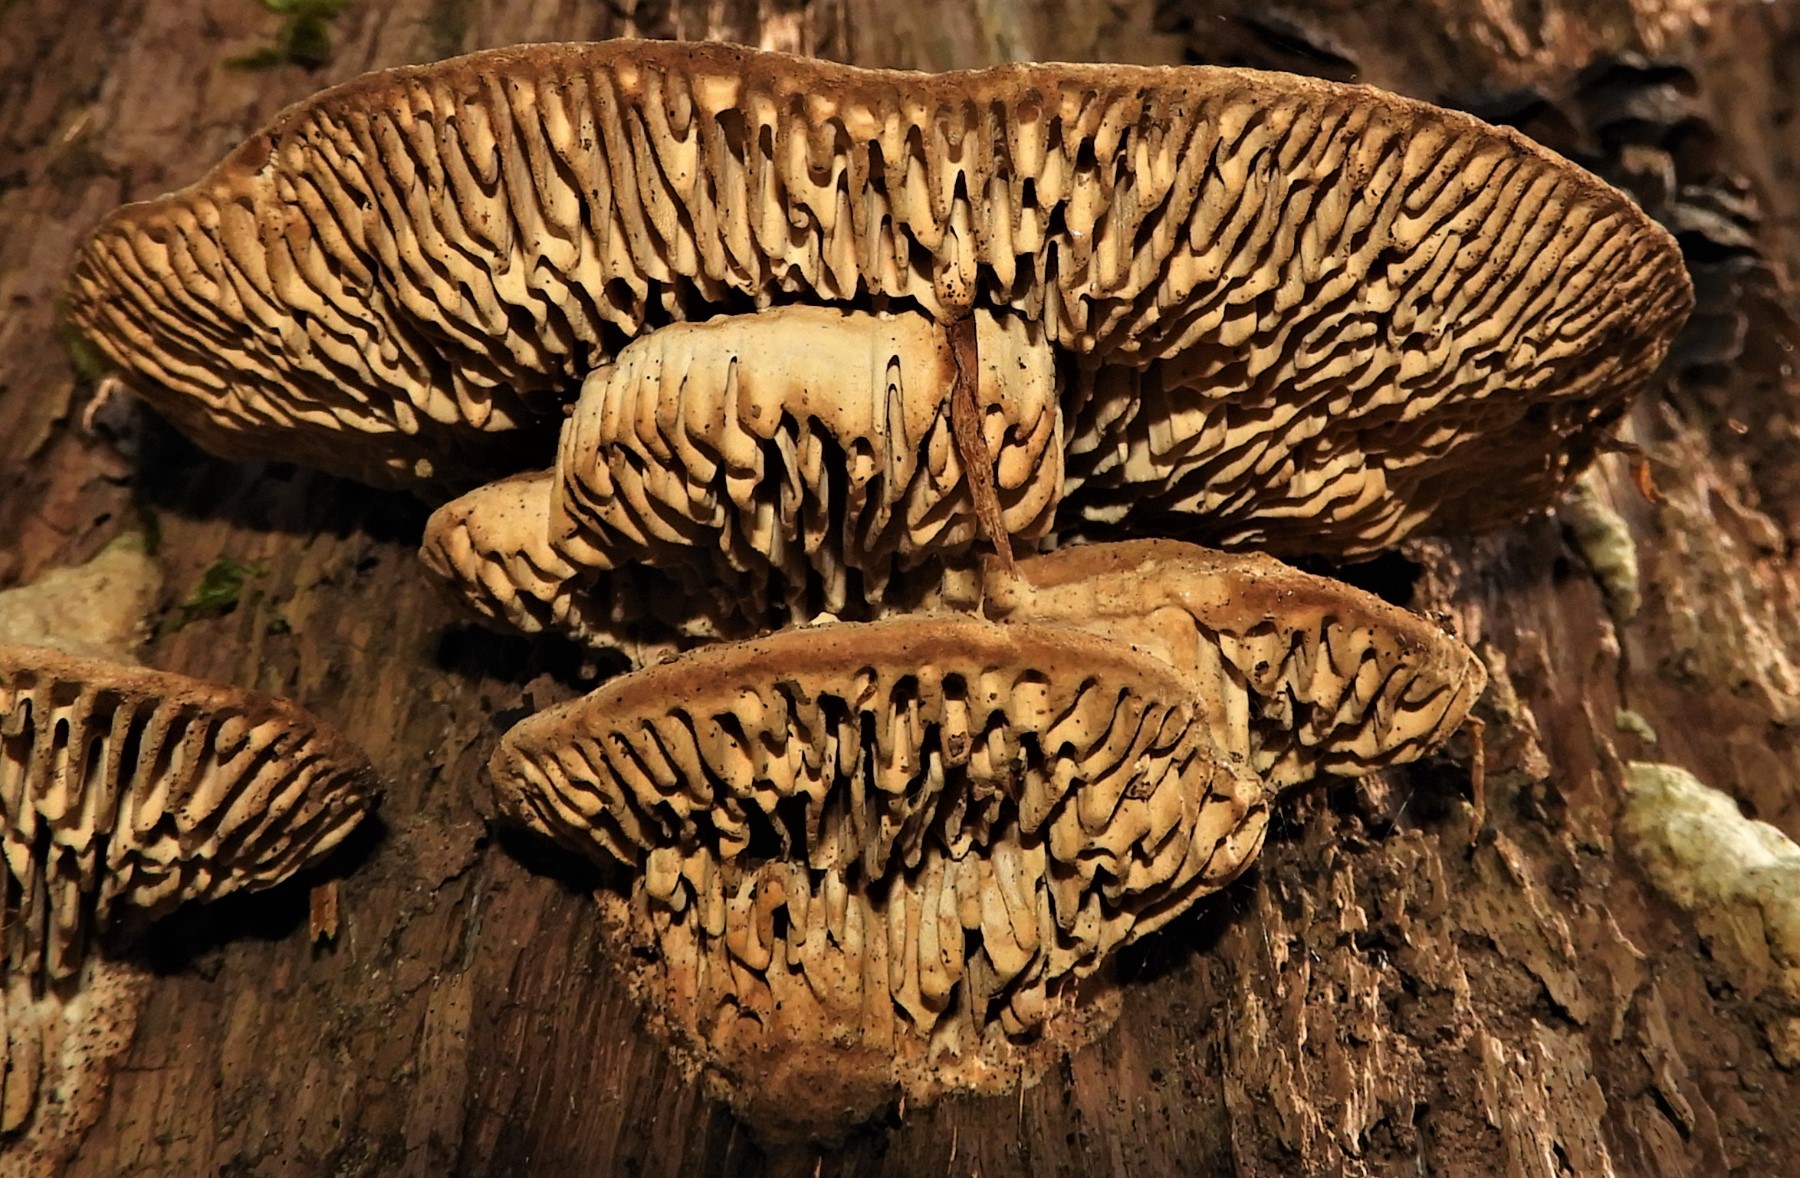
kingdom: Fungi
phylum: Basidiomycota
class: Agaricomycetes
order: Polyporales
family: Fomitopsidaceae
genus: Daedalea
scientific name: Daedalea quercina
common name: ege-labyrintsvamp
